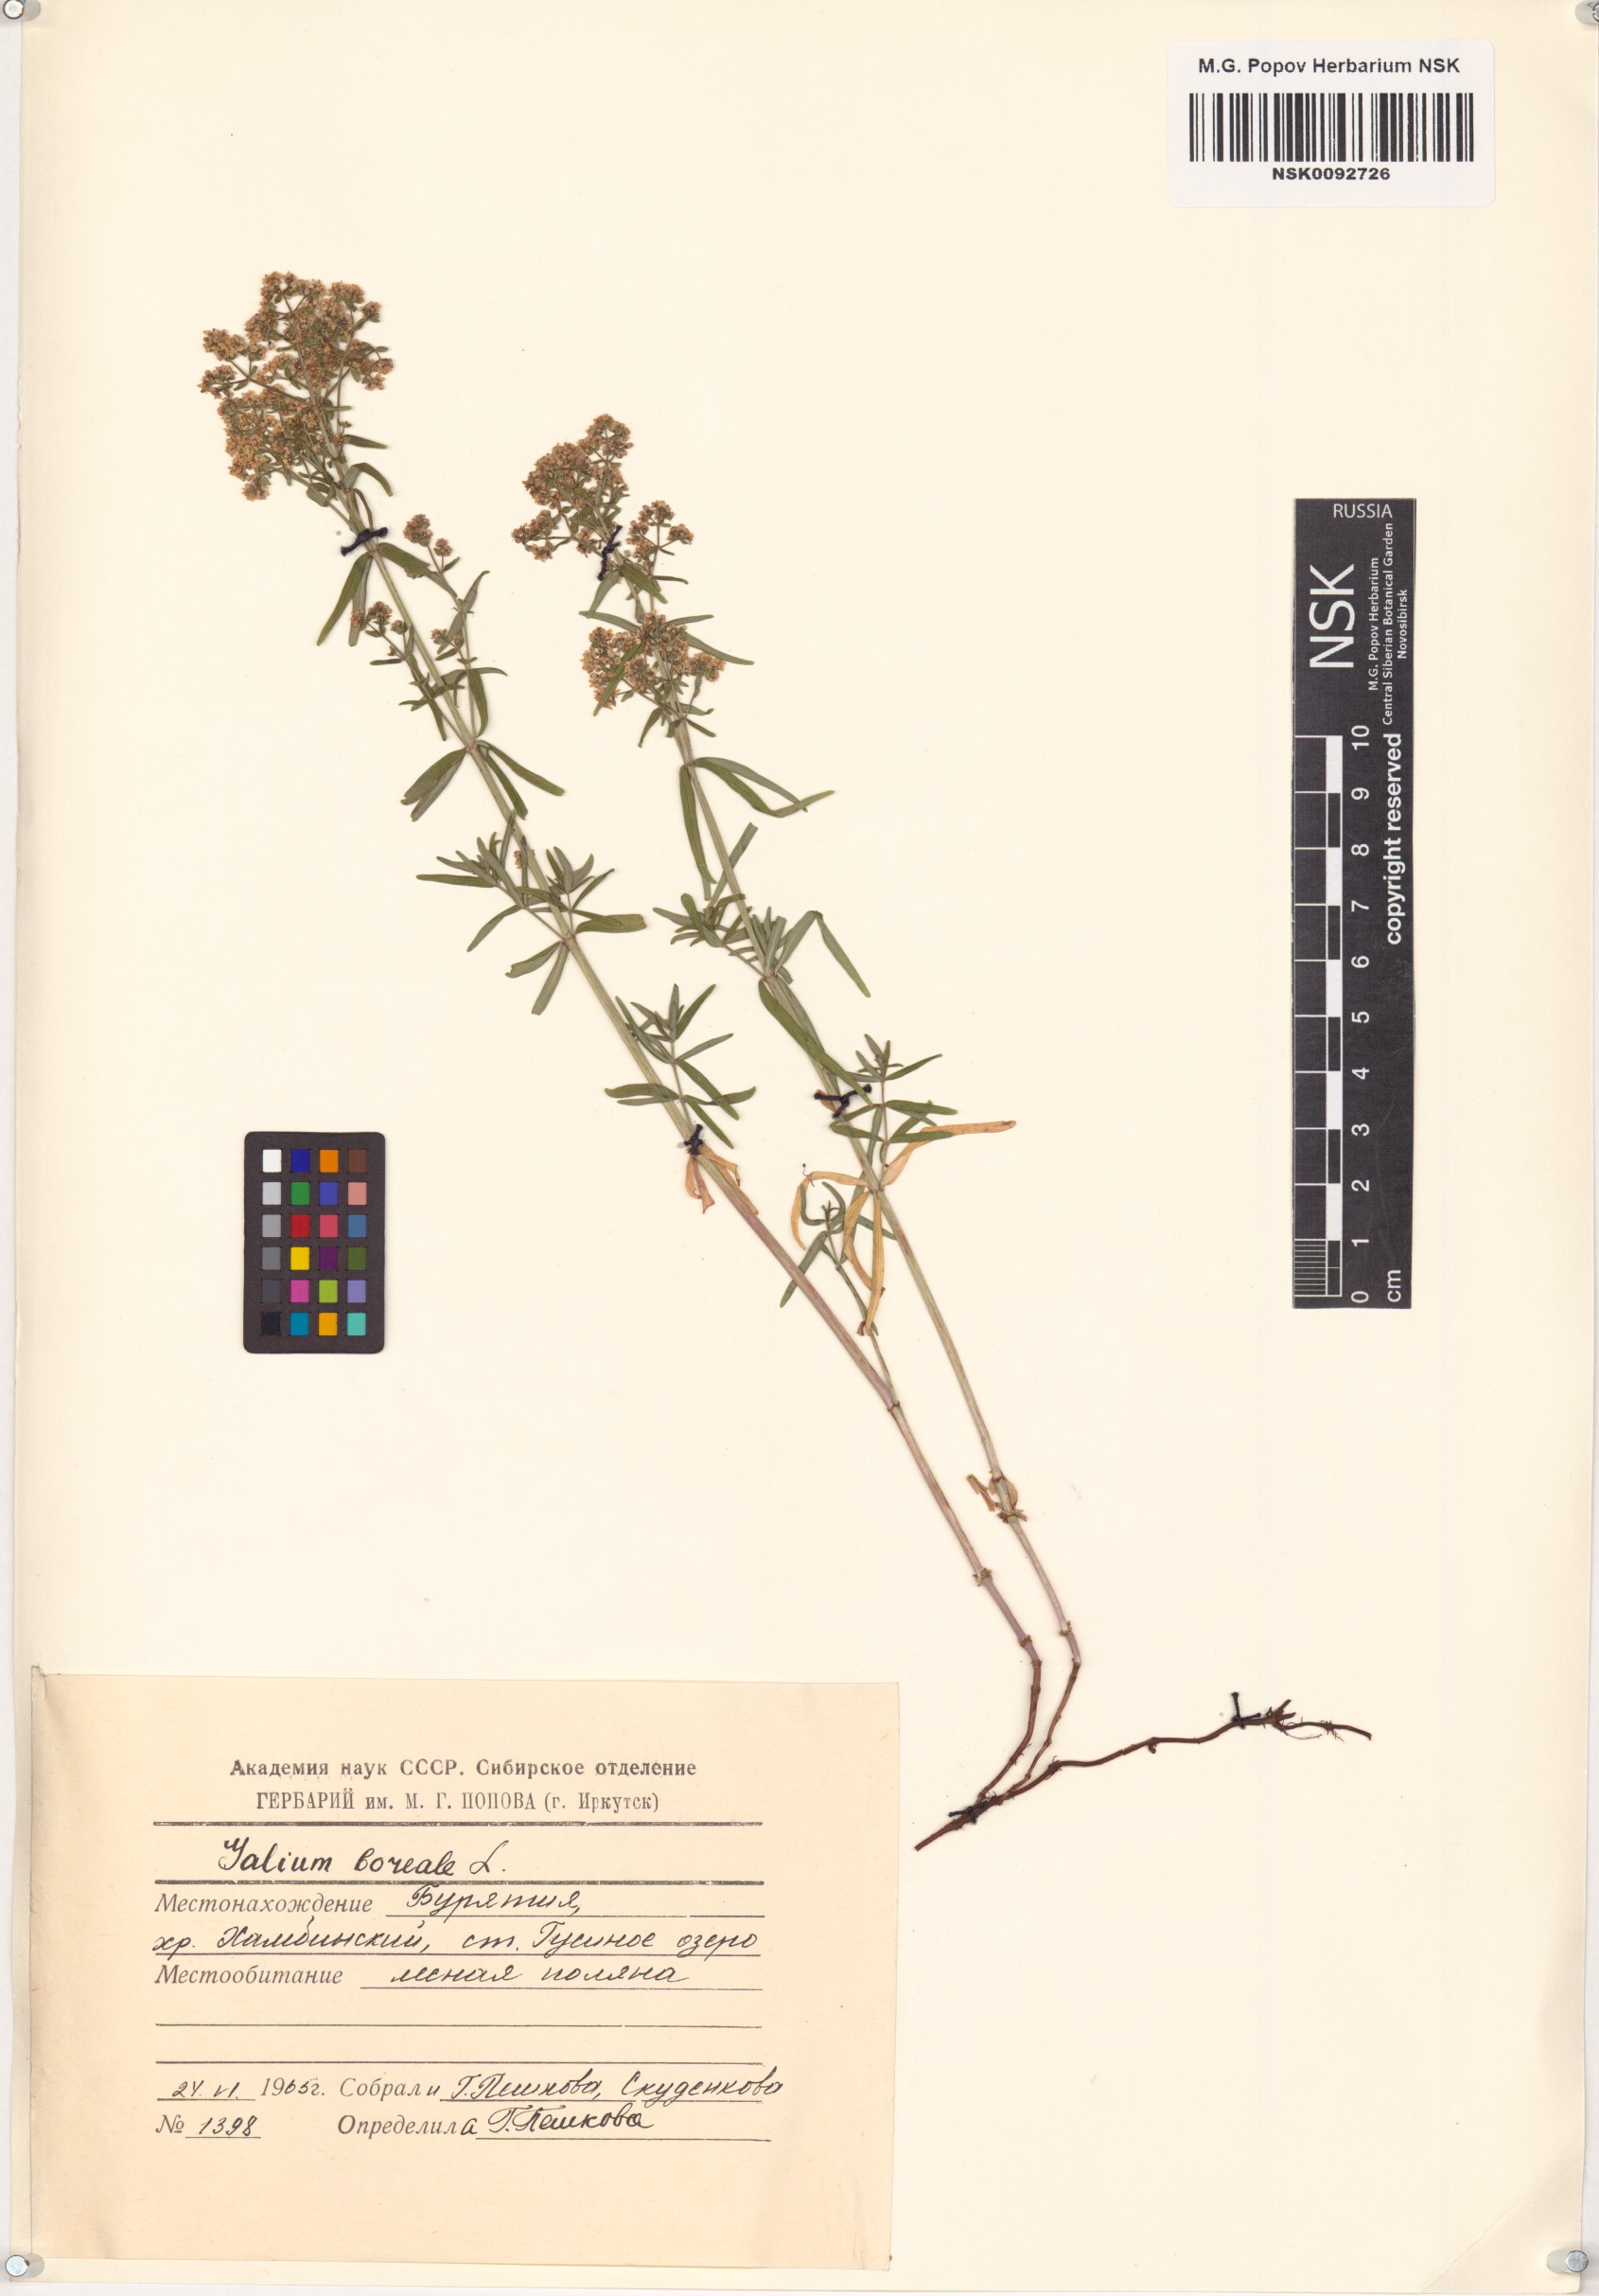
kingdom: Plantae
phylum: Tracheophyta
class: Magnoliopsida
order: Gentianales
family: Rubiaceae
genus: Galium
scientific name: Galium boreale
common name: Northern bedstraw
